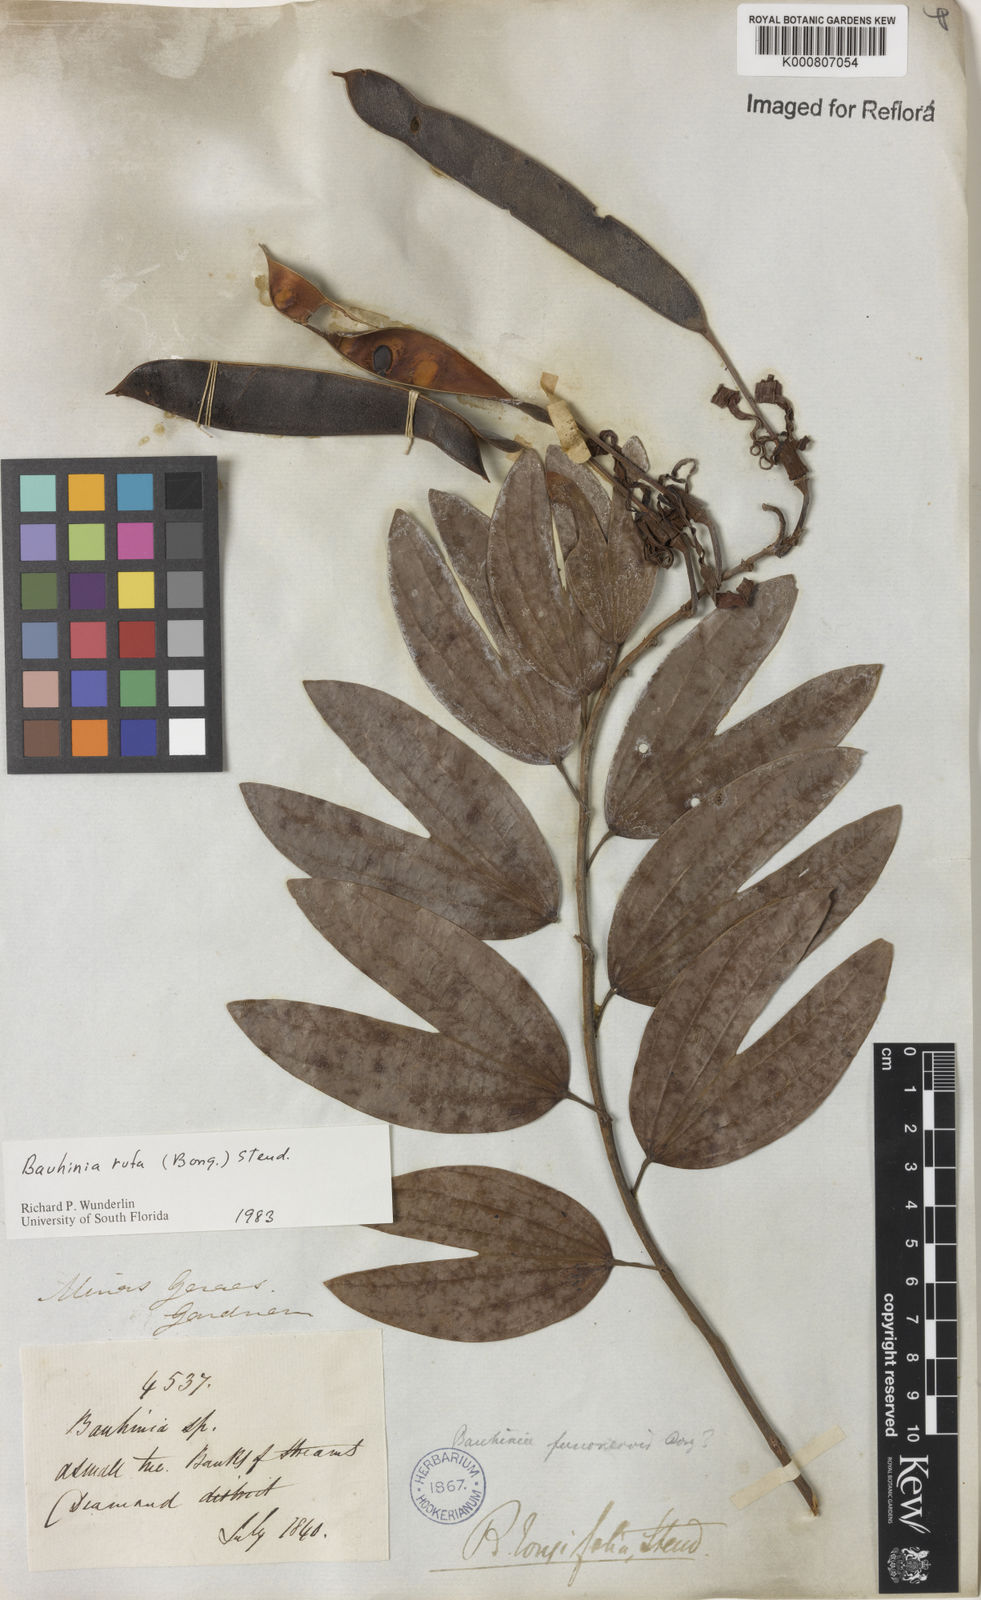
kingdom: Plantae
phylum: Tracheophyta
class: Magnoliopsida
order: Fabales
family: Fabaceae
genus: Bauhinia
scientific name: Bauhinia rufa
